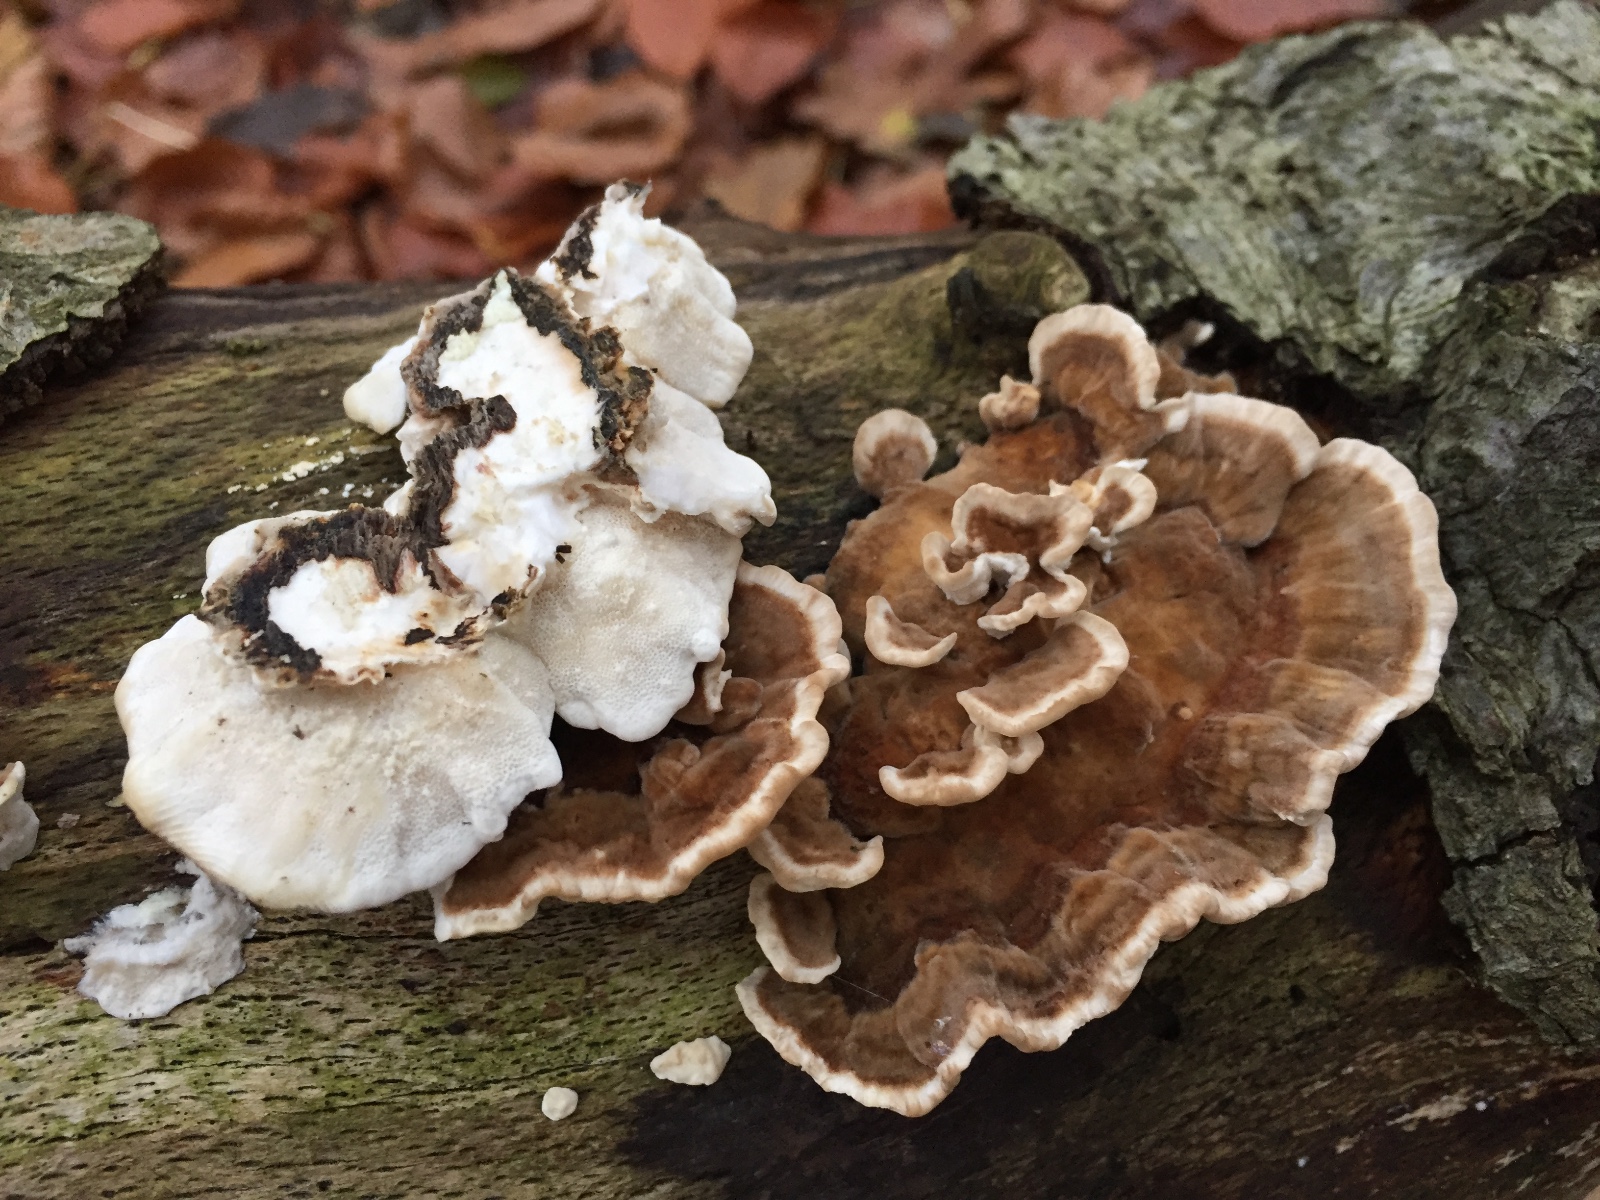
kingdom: Fungi
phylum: Basidiomycota
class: Agaricomycetes
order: Polyporales
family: Polyporaceae
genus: Trametes
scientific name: Trametes versicolor
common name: broget læderporesvamp
